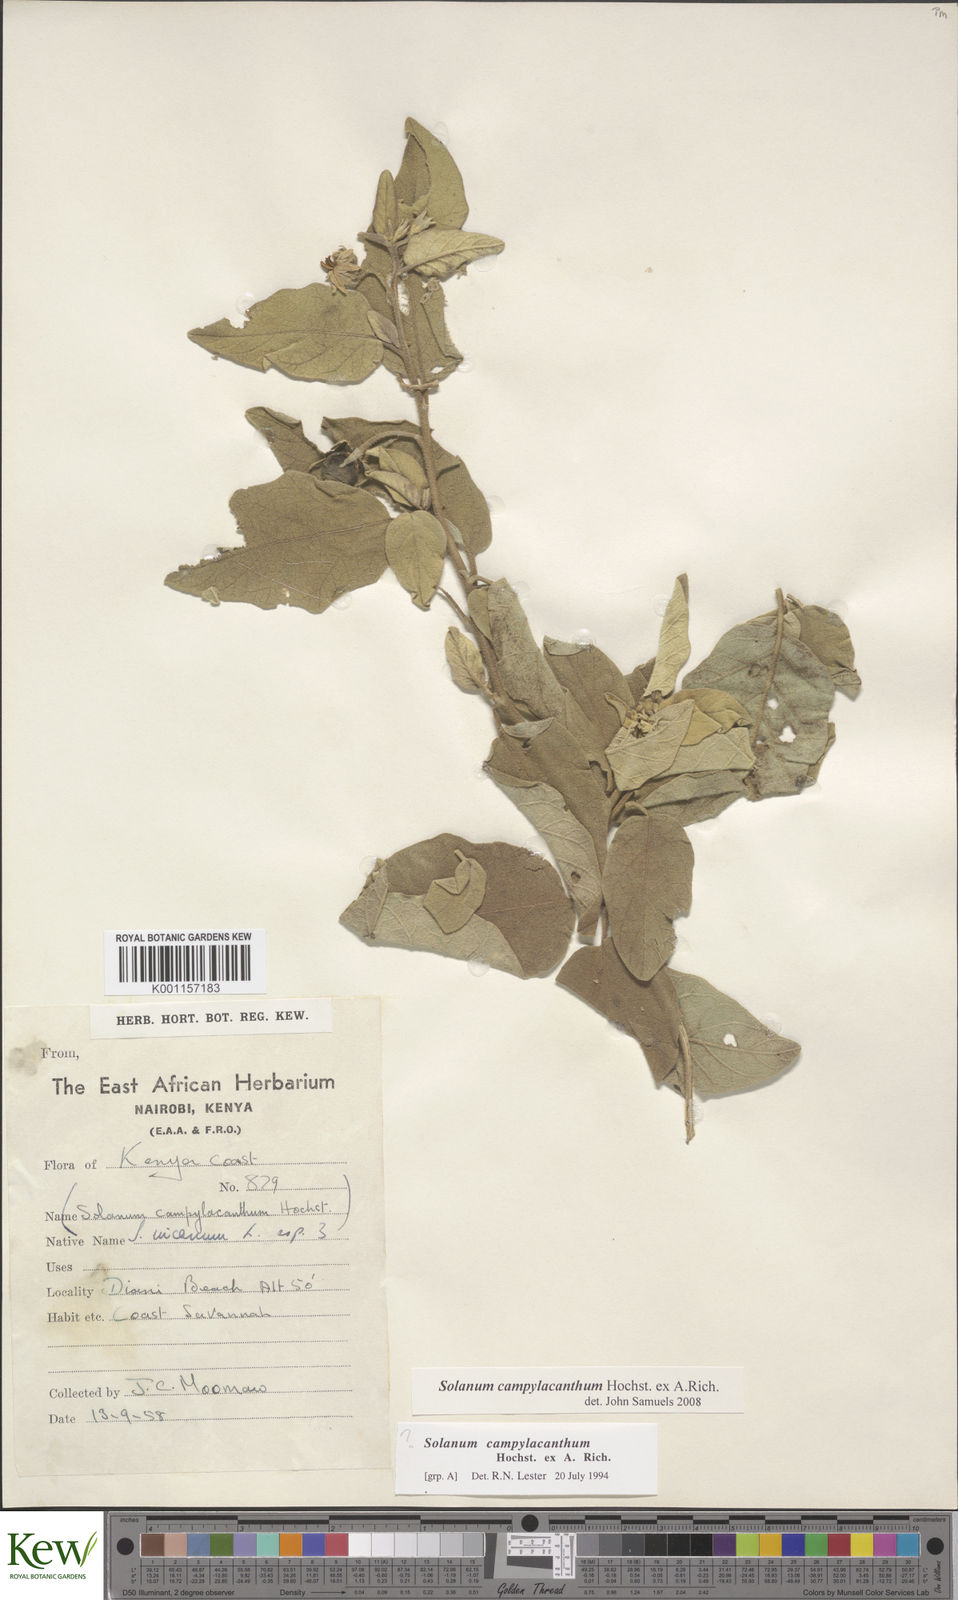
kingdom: Plantae
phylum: Tracheophyta
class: Magnoliopsida
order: Solanales
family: Solanaceae
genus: Solanum
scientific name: Solanum campylacanthum
